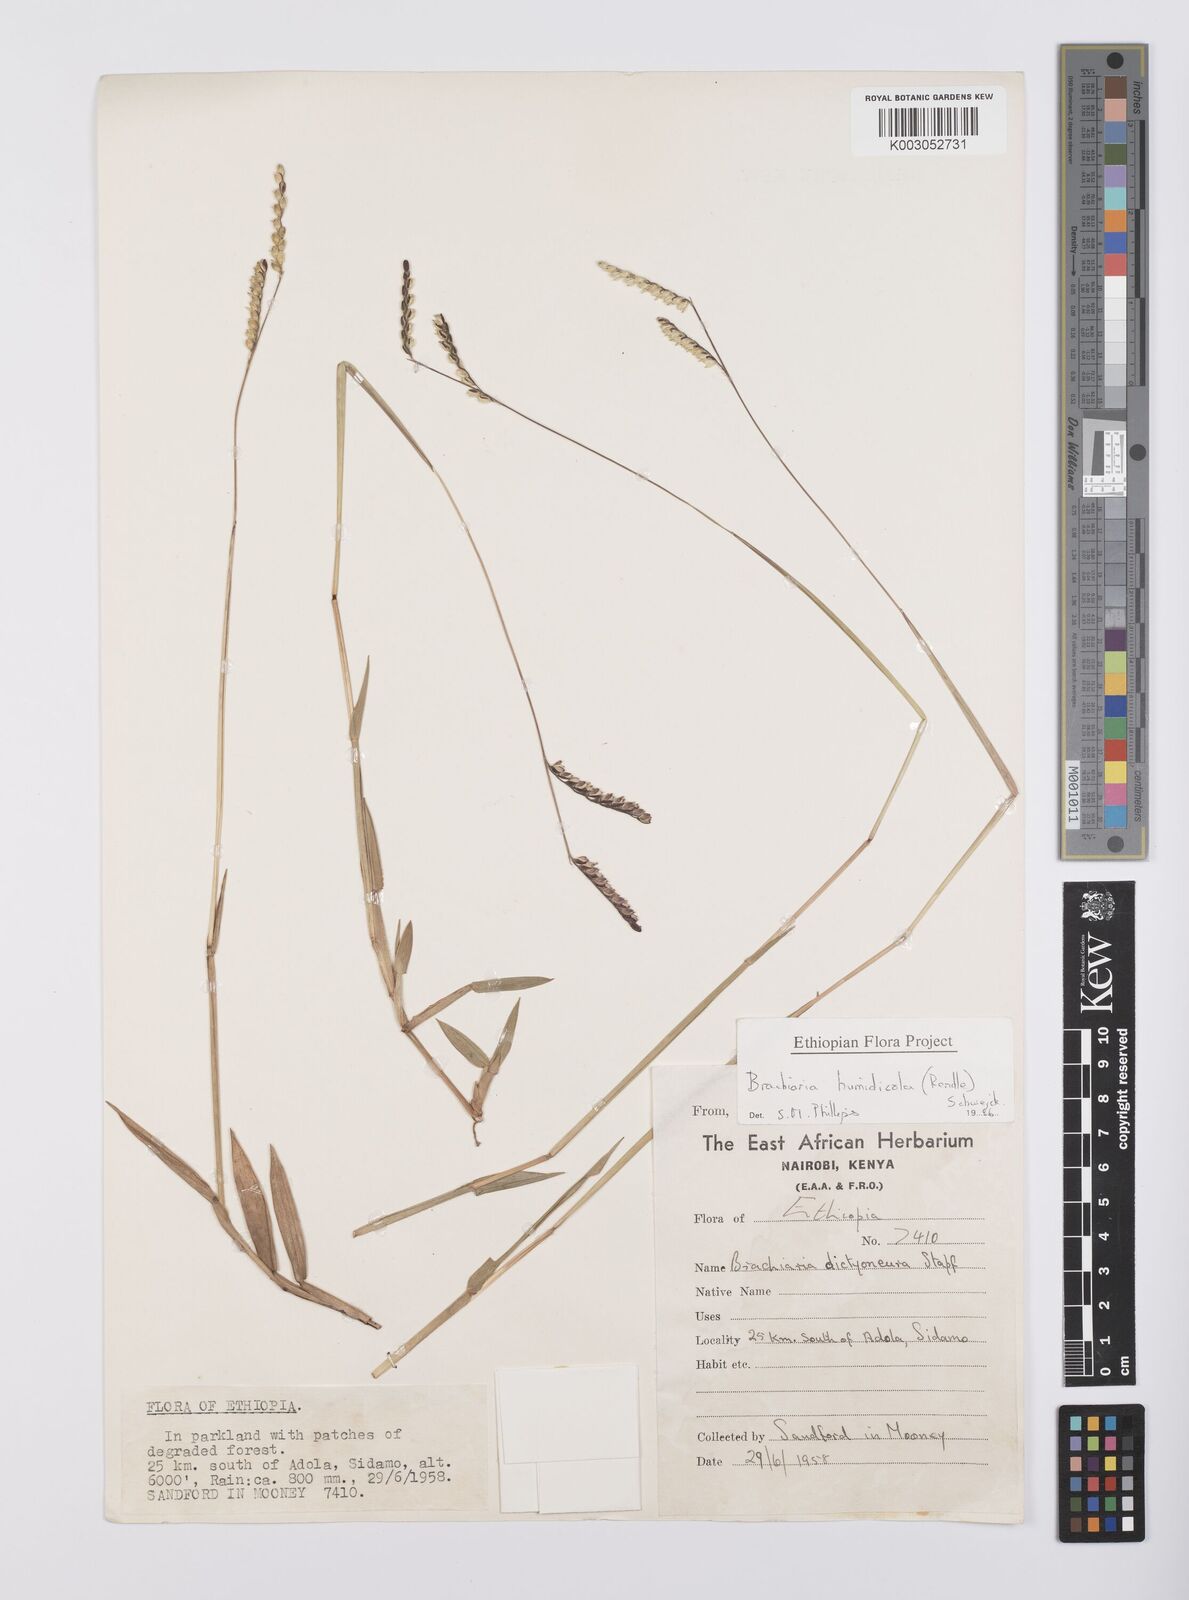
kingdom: Plantae
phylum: Tracheophyta
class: Liliopsida
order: Poales
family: Poaceae
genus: Urochloa
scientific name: Urochloa dictyoneura
